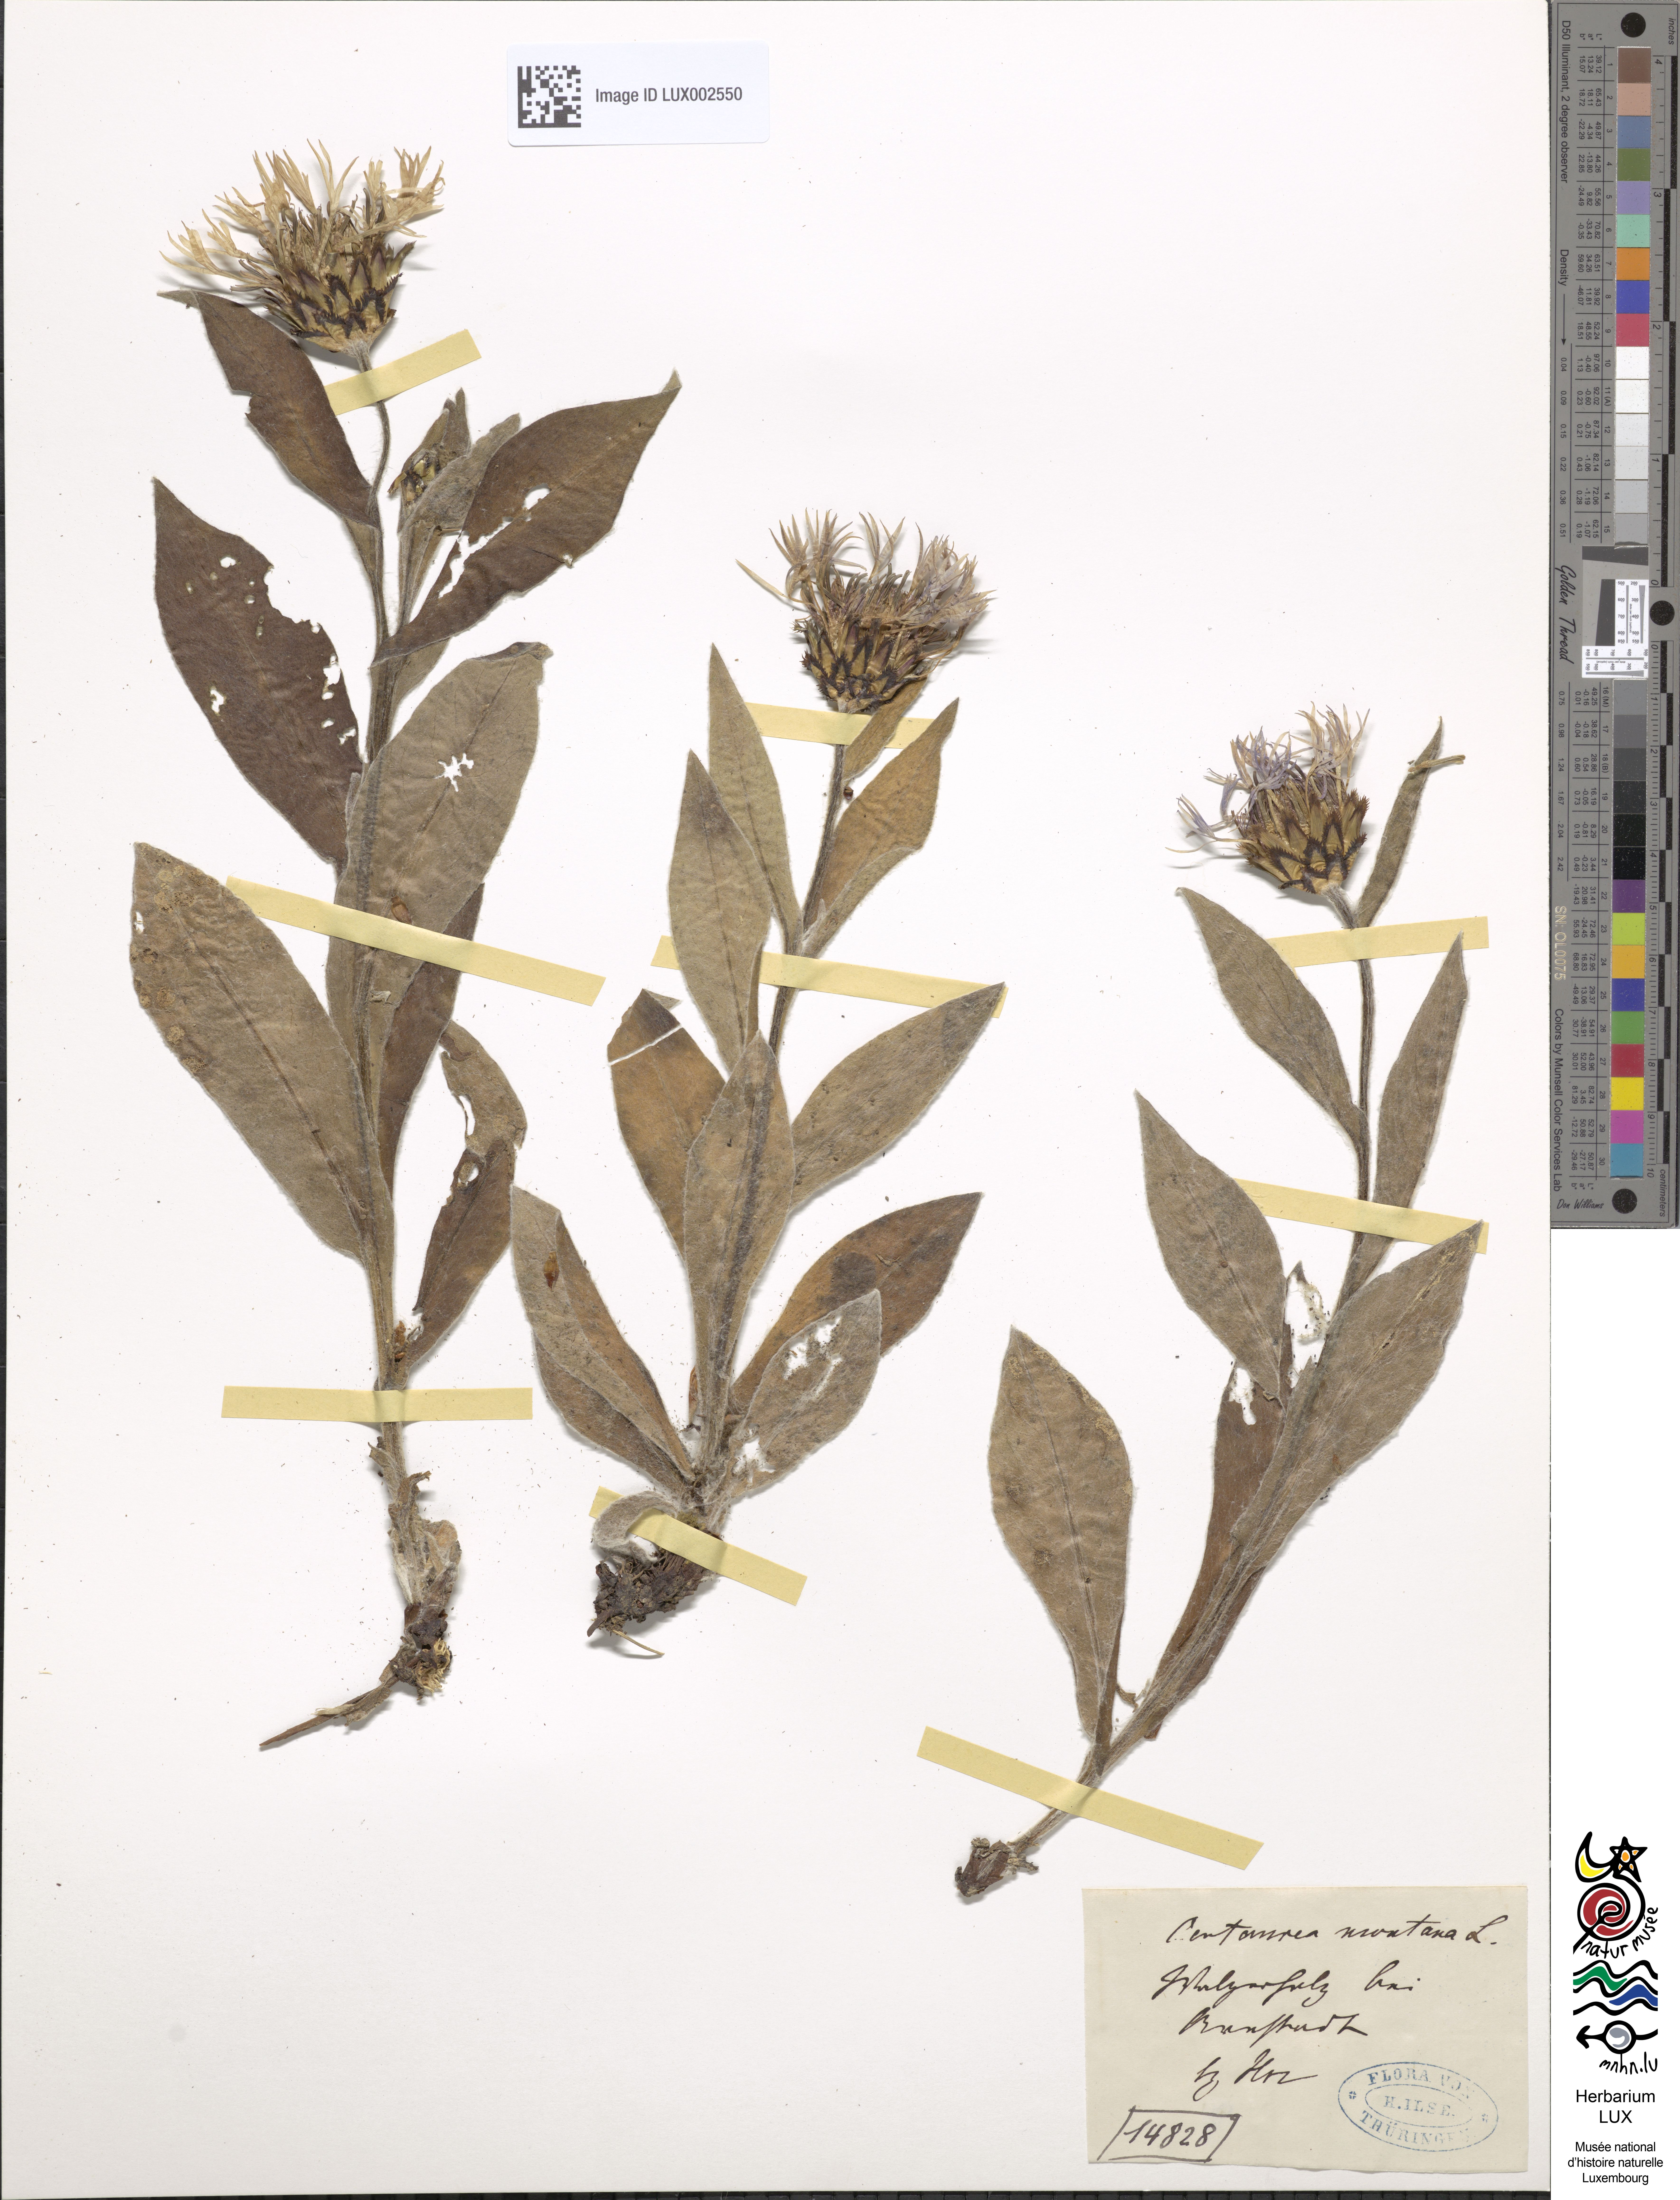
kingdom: Plantae
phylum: Tracheophyta
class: Magnoliopsida
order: Asterales
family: Asteraceae
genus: Centaurea
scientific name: Centaurea montana
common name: Perennial cornflower
